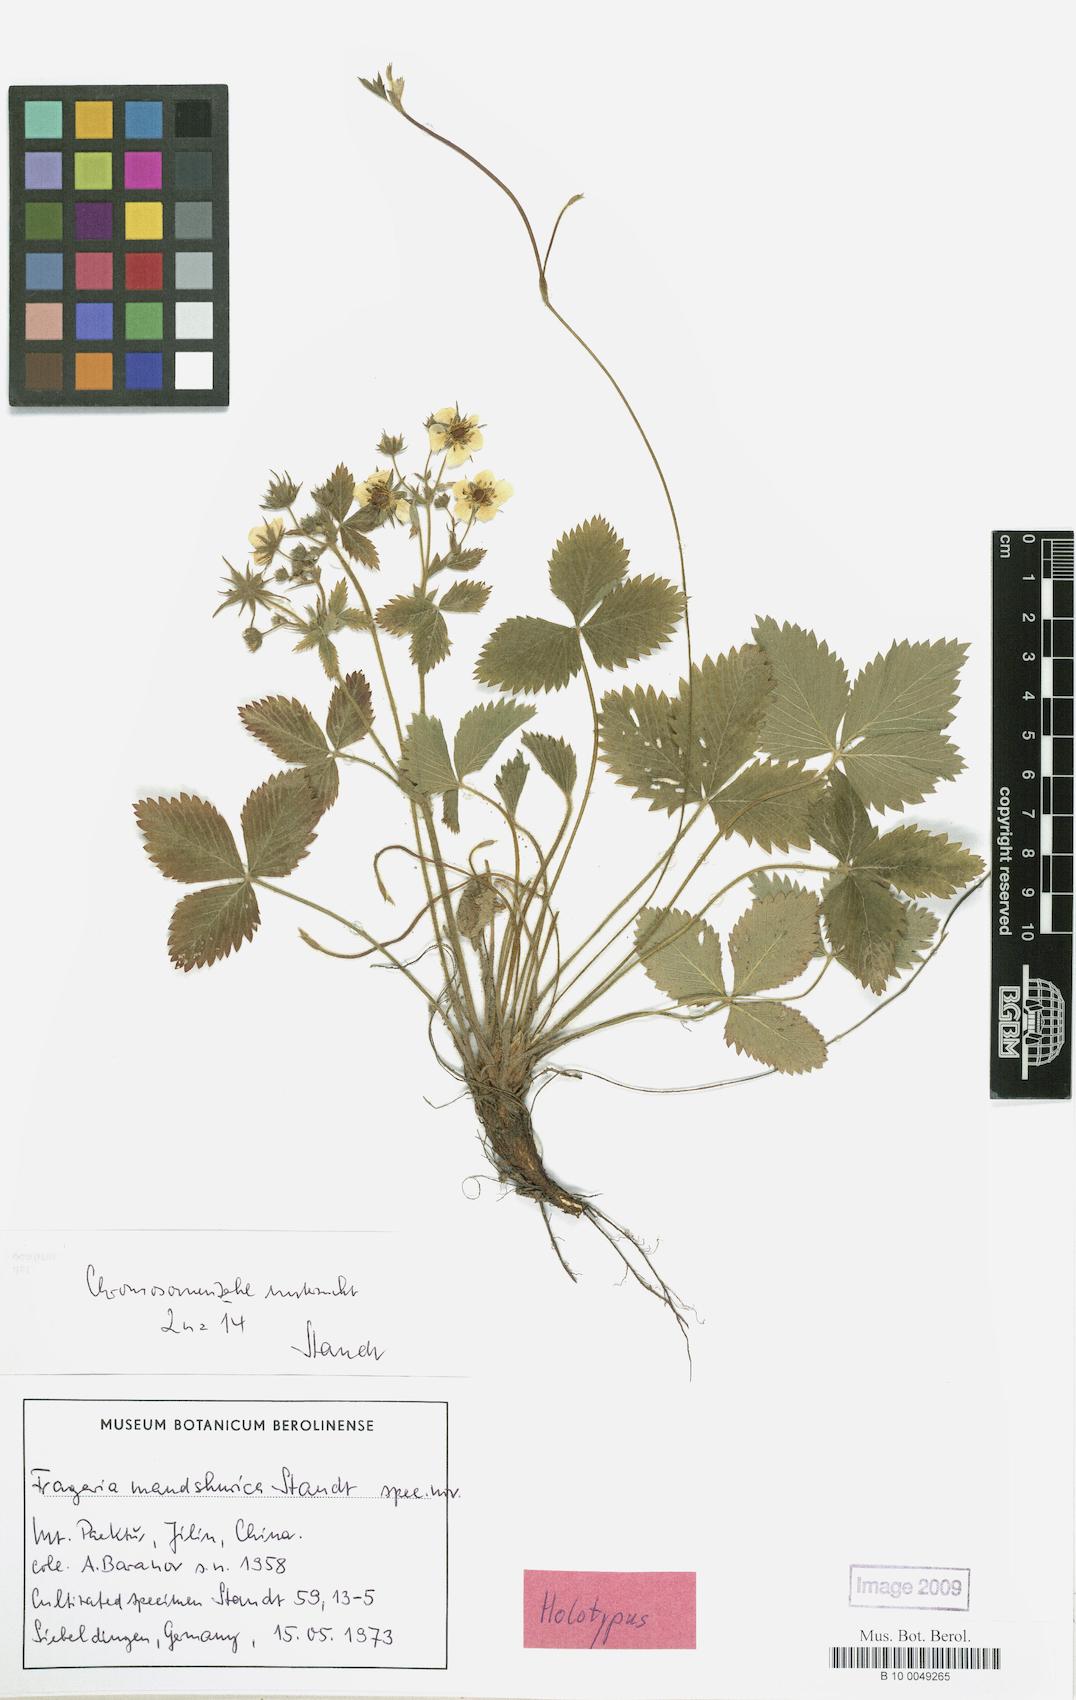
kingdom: Plantae
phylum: Tracheophyta
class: Magnoliopsida
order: Rosales
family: Rosaceae
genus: Fragaria
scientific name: Fragaria mandshurica
